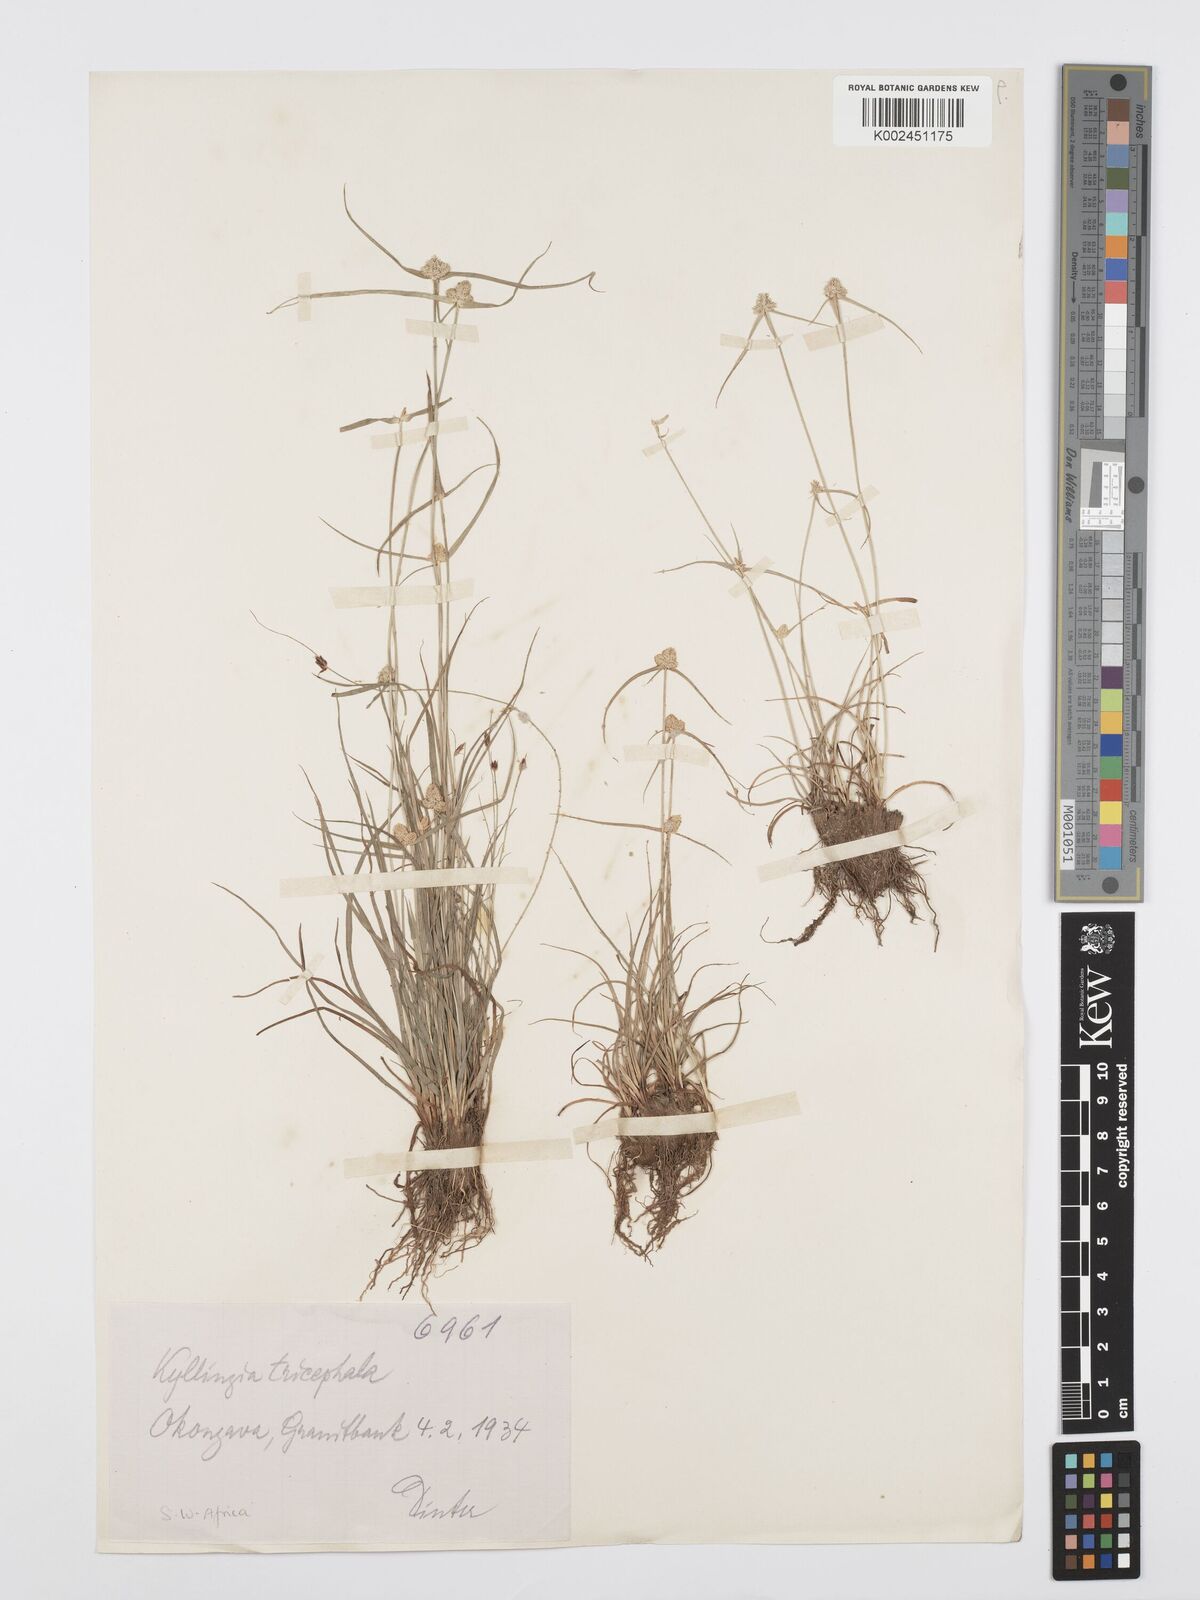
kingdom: Plantae
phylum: Tracheophyta
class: Liliopsida
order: Poales
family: Cyperaceae
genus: Cyperus
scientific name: Cyperus welwitschii
